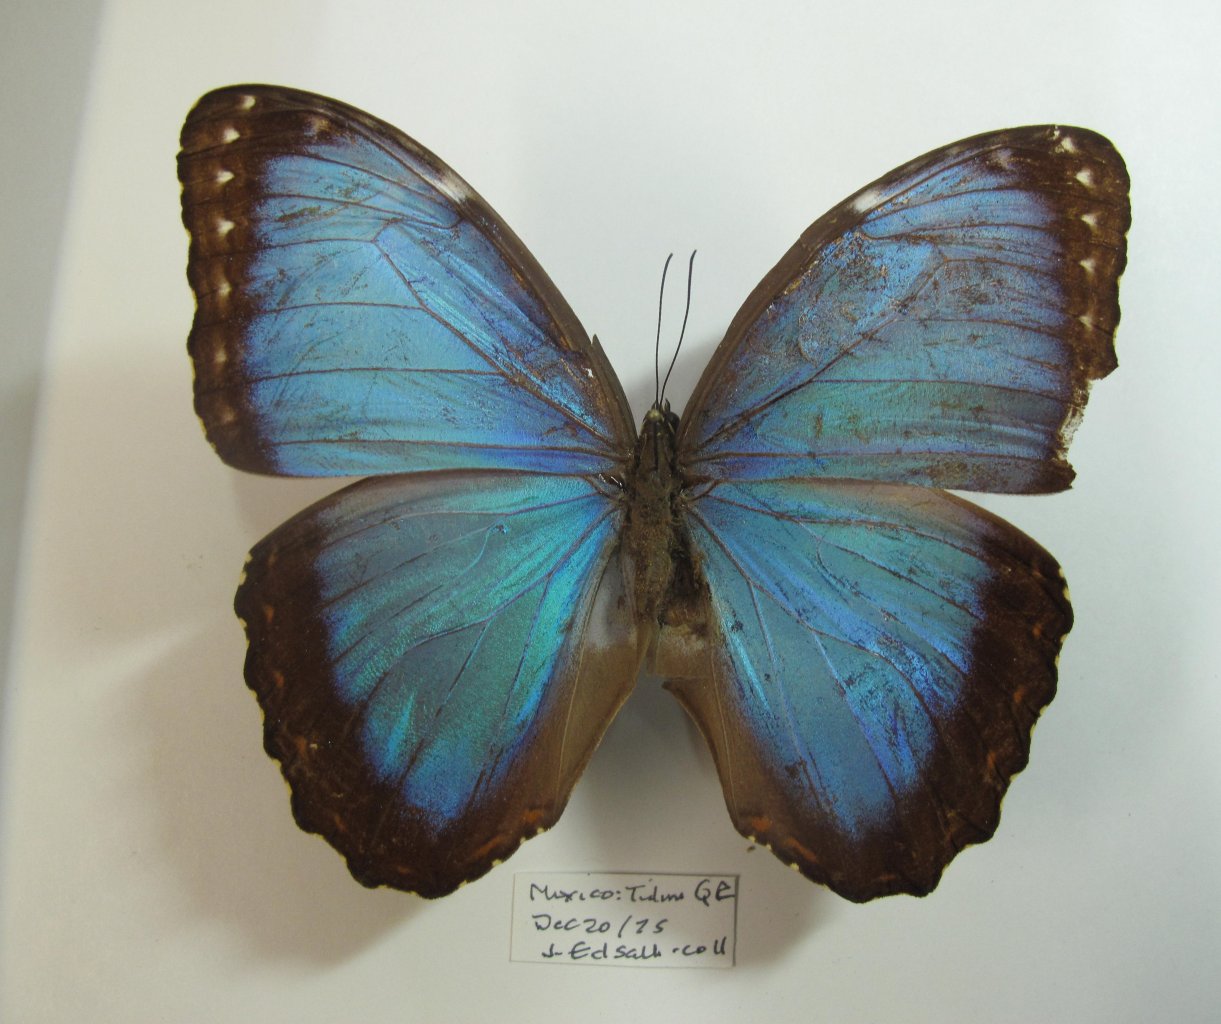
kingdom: Animalia
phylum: Arthropoda
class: Insecta
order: Lepidoptera
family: Nymphalidae
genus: Morpho
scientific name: Morpho helenor
